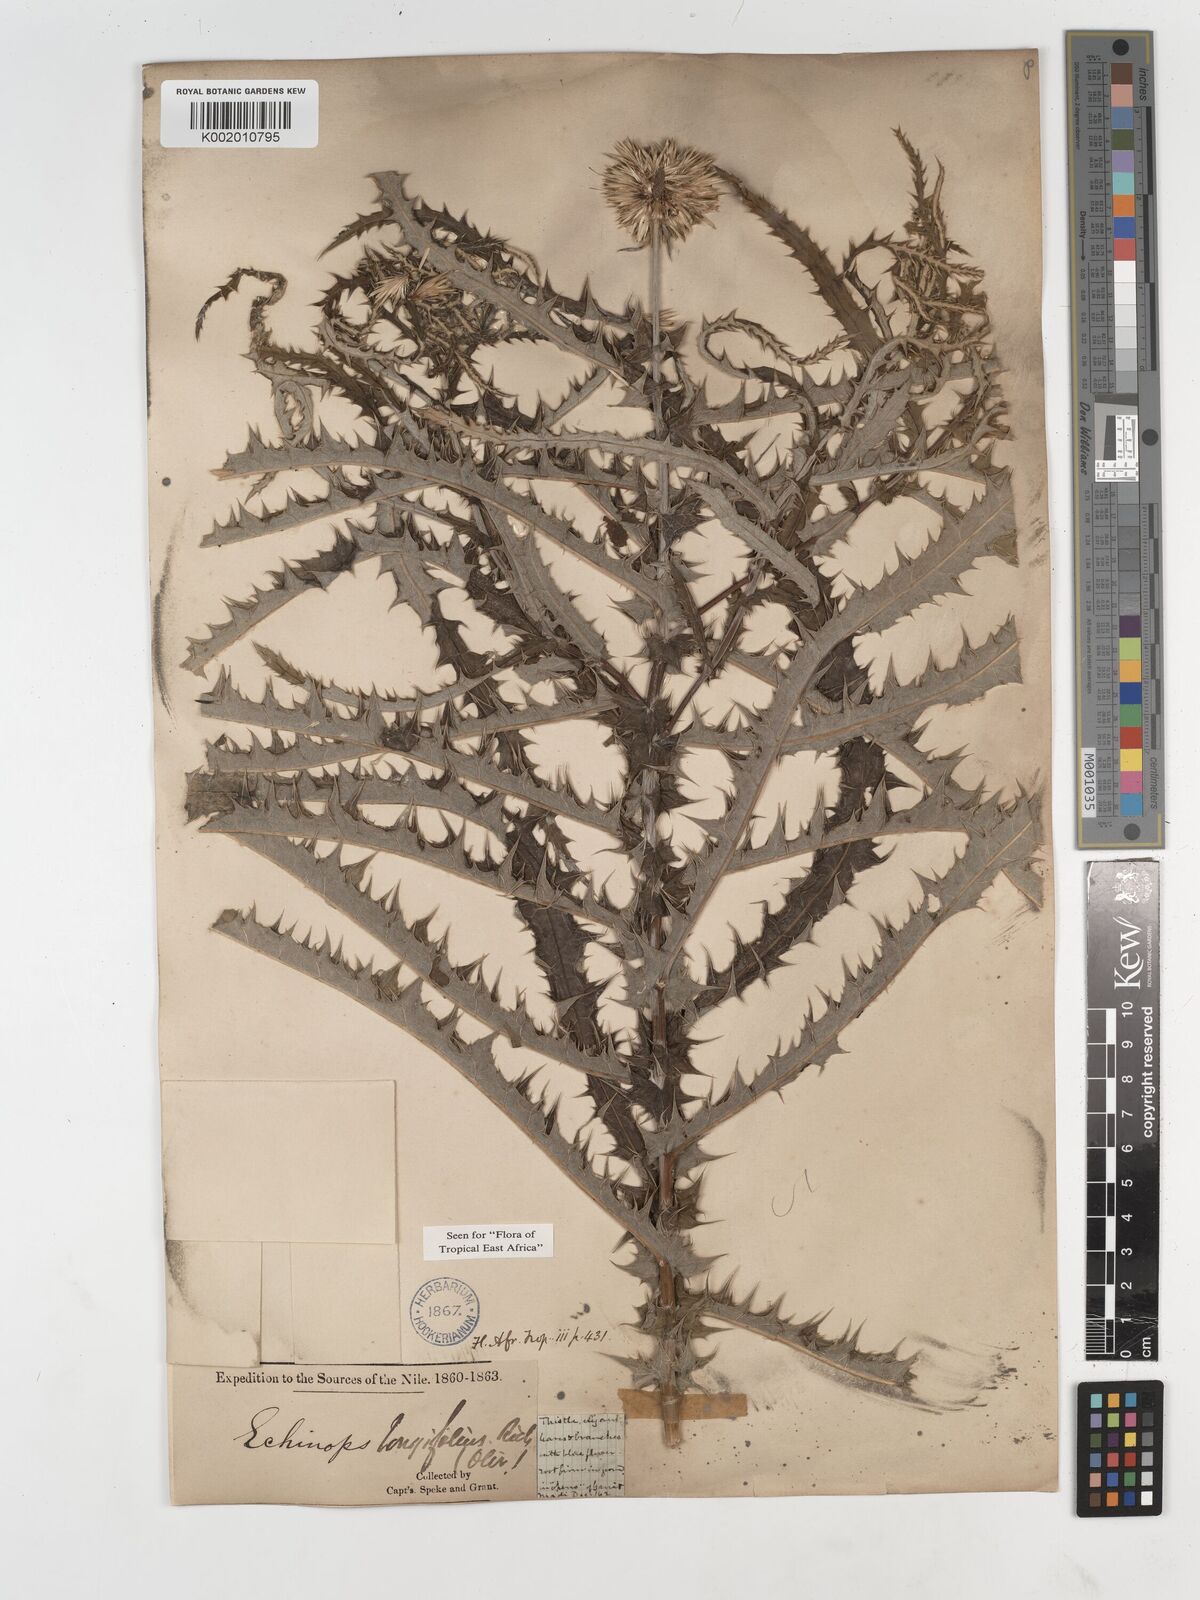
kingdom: Plantae
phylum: Tracheophyta
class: Magnoliopsida
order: Asterales
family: Asteraceae
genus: Echinops
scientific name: Echinops longifolius
